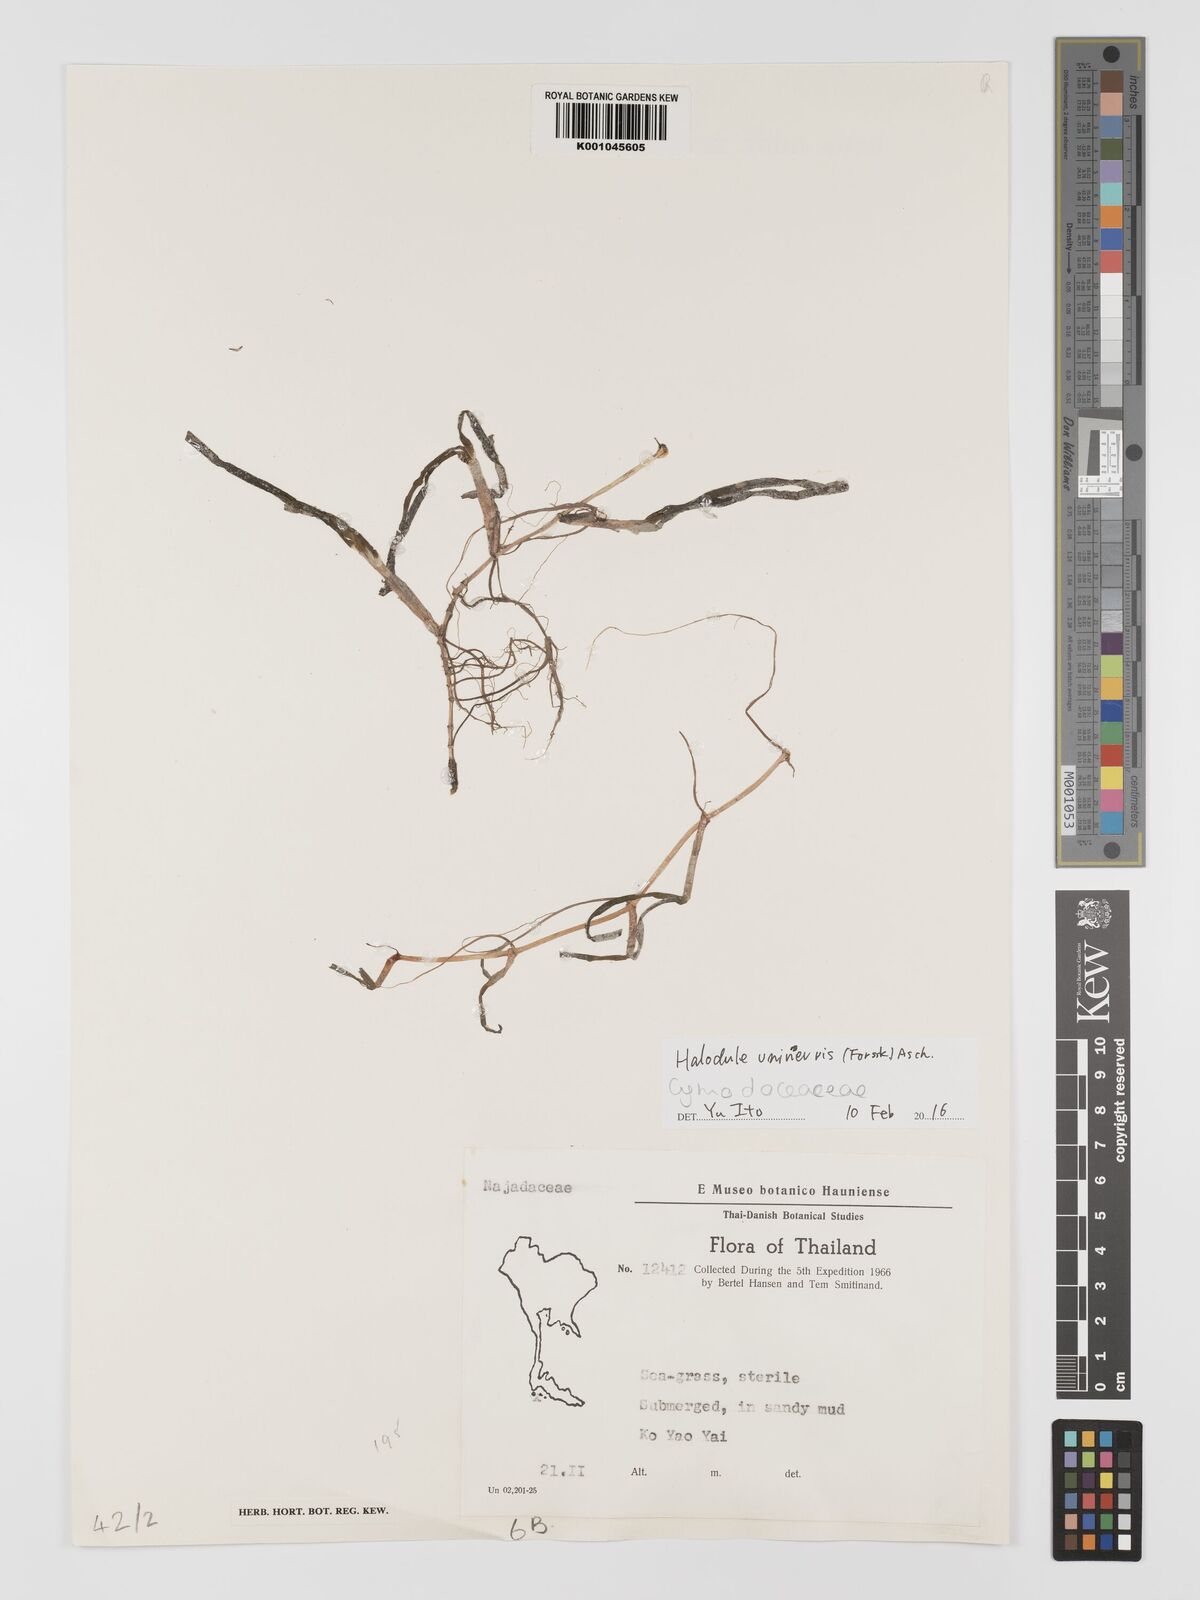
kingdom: Plantae
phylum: Tracheophyta
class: Liliopsida
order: Alismatales
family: Cymodoceaceae
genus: Halodule
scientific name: Halodule uninervis
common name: Narrowleaf seagrass
